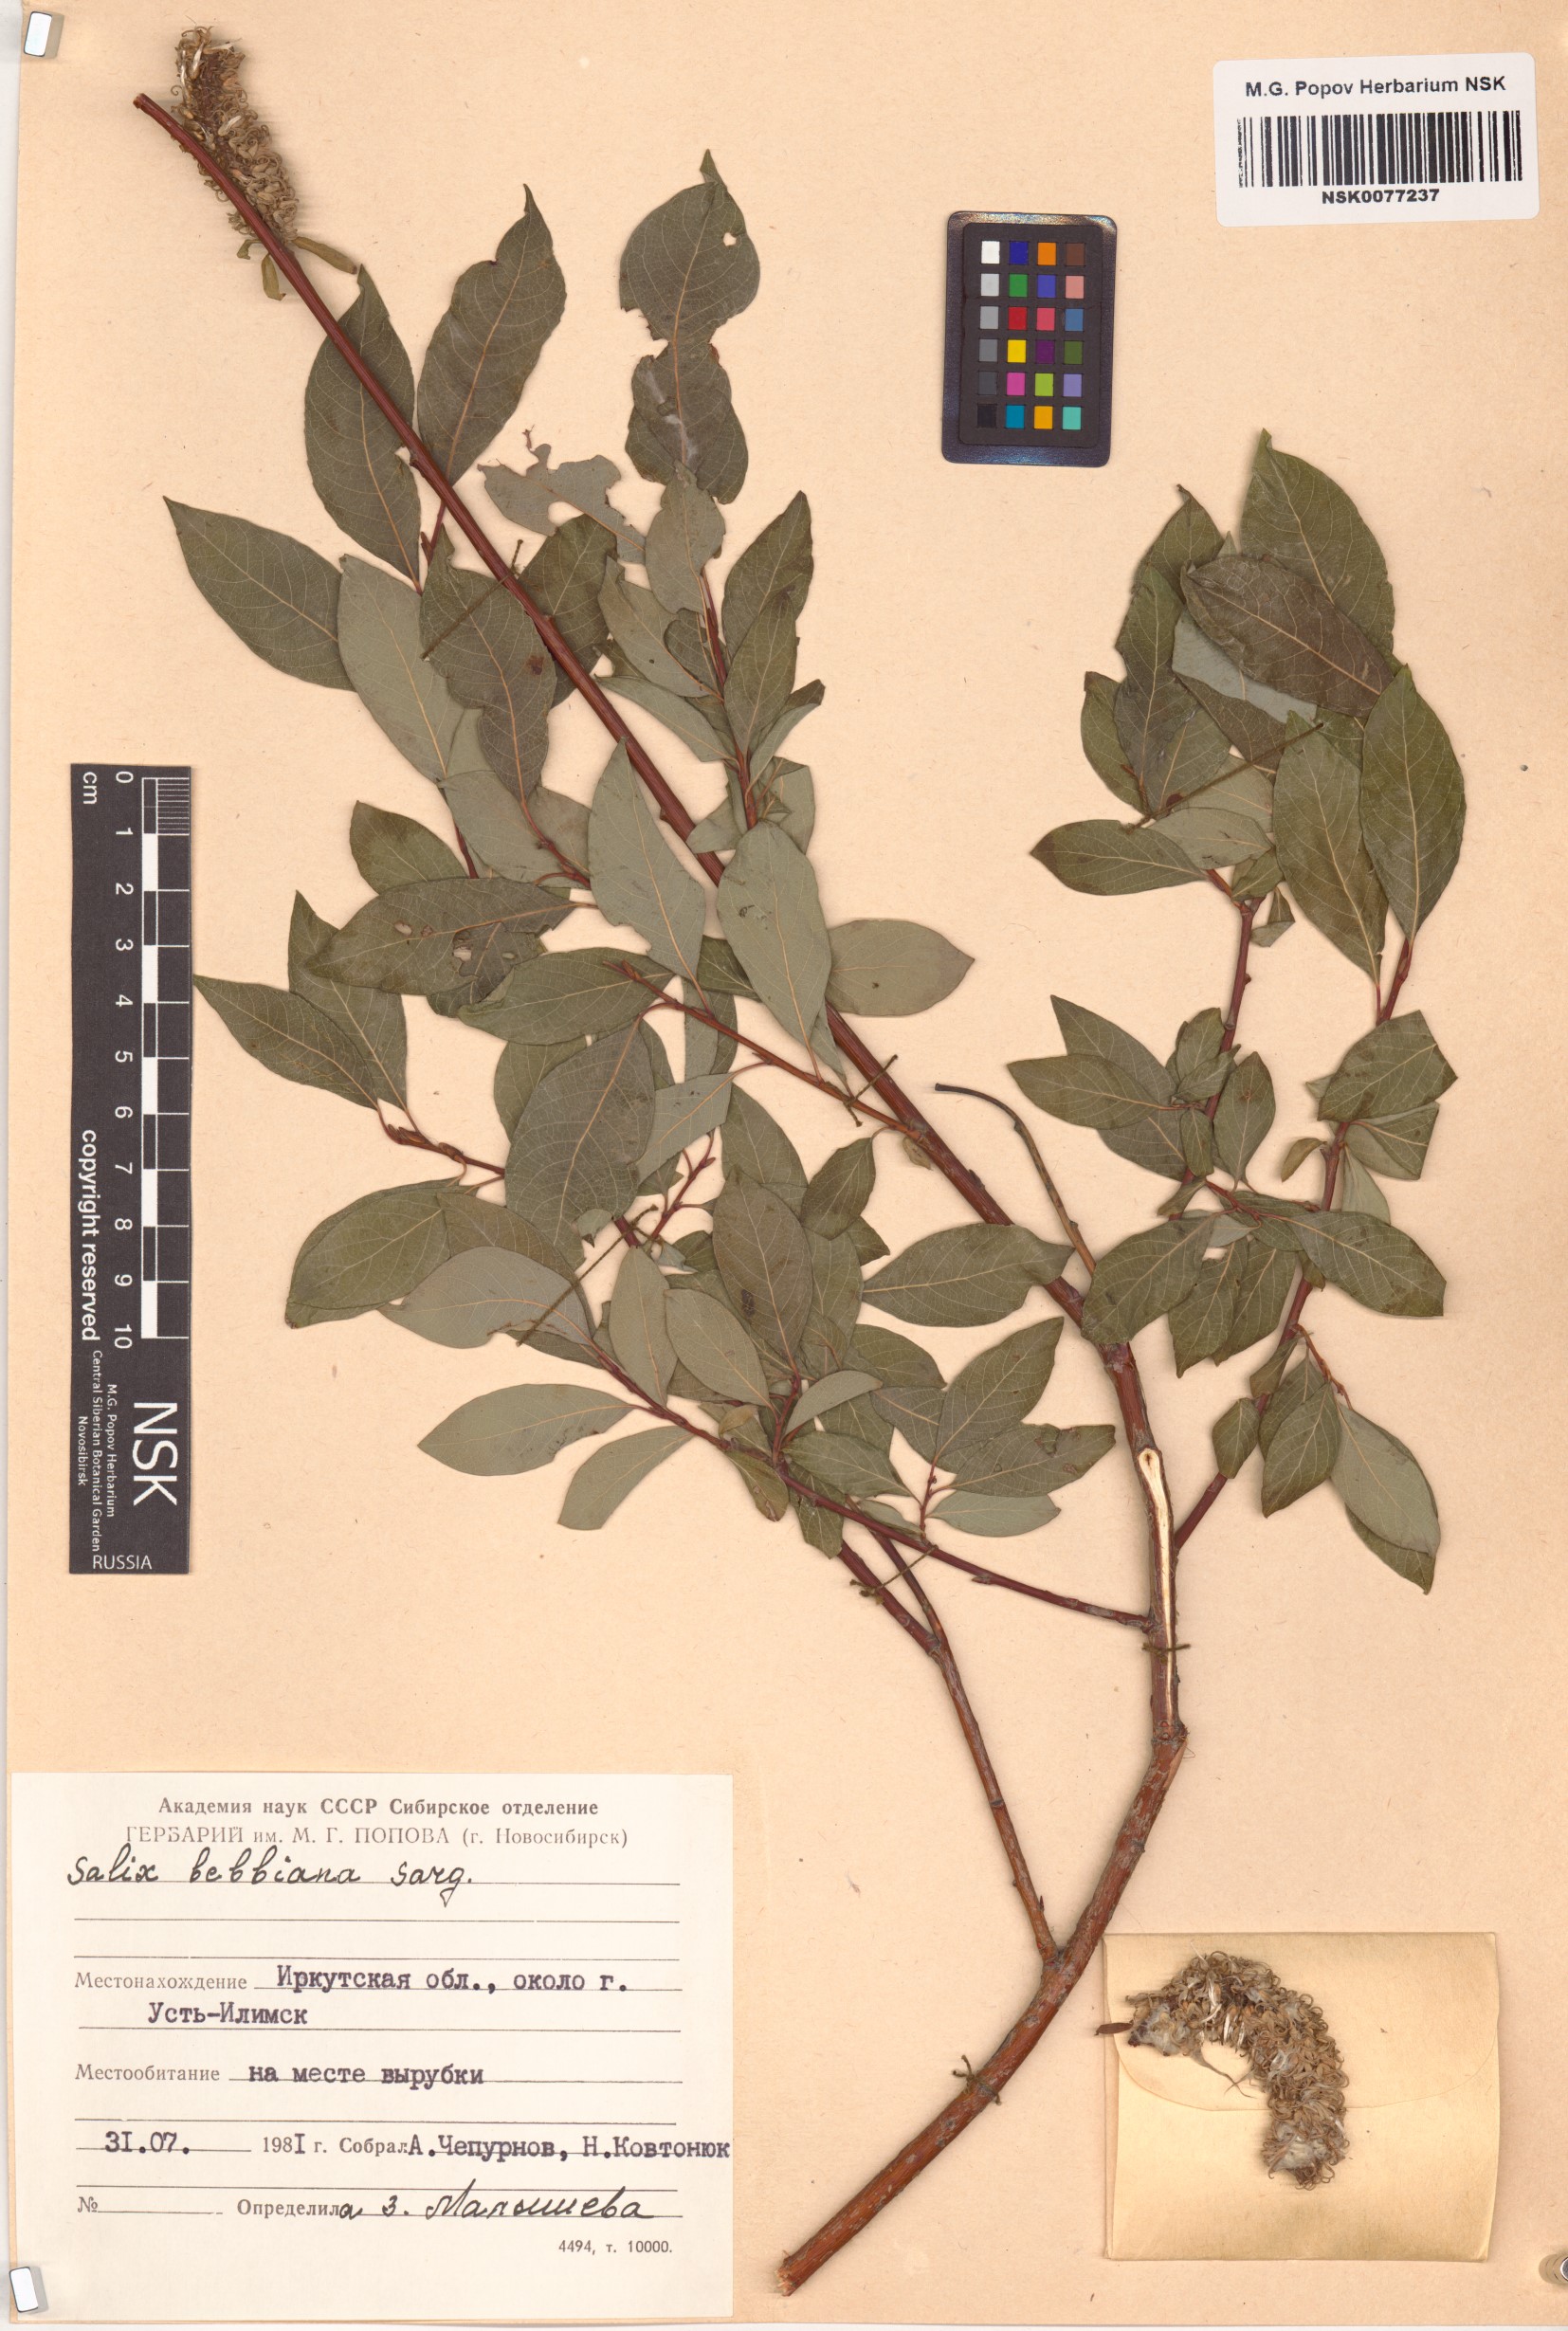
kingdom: Plantae
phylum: Tracheophyta
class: Magnoliopsida
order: Malpighiales
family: Salicaceae
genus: Salix
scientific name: Salix bebbiana
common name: Bebb's willow
